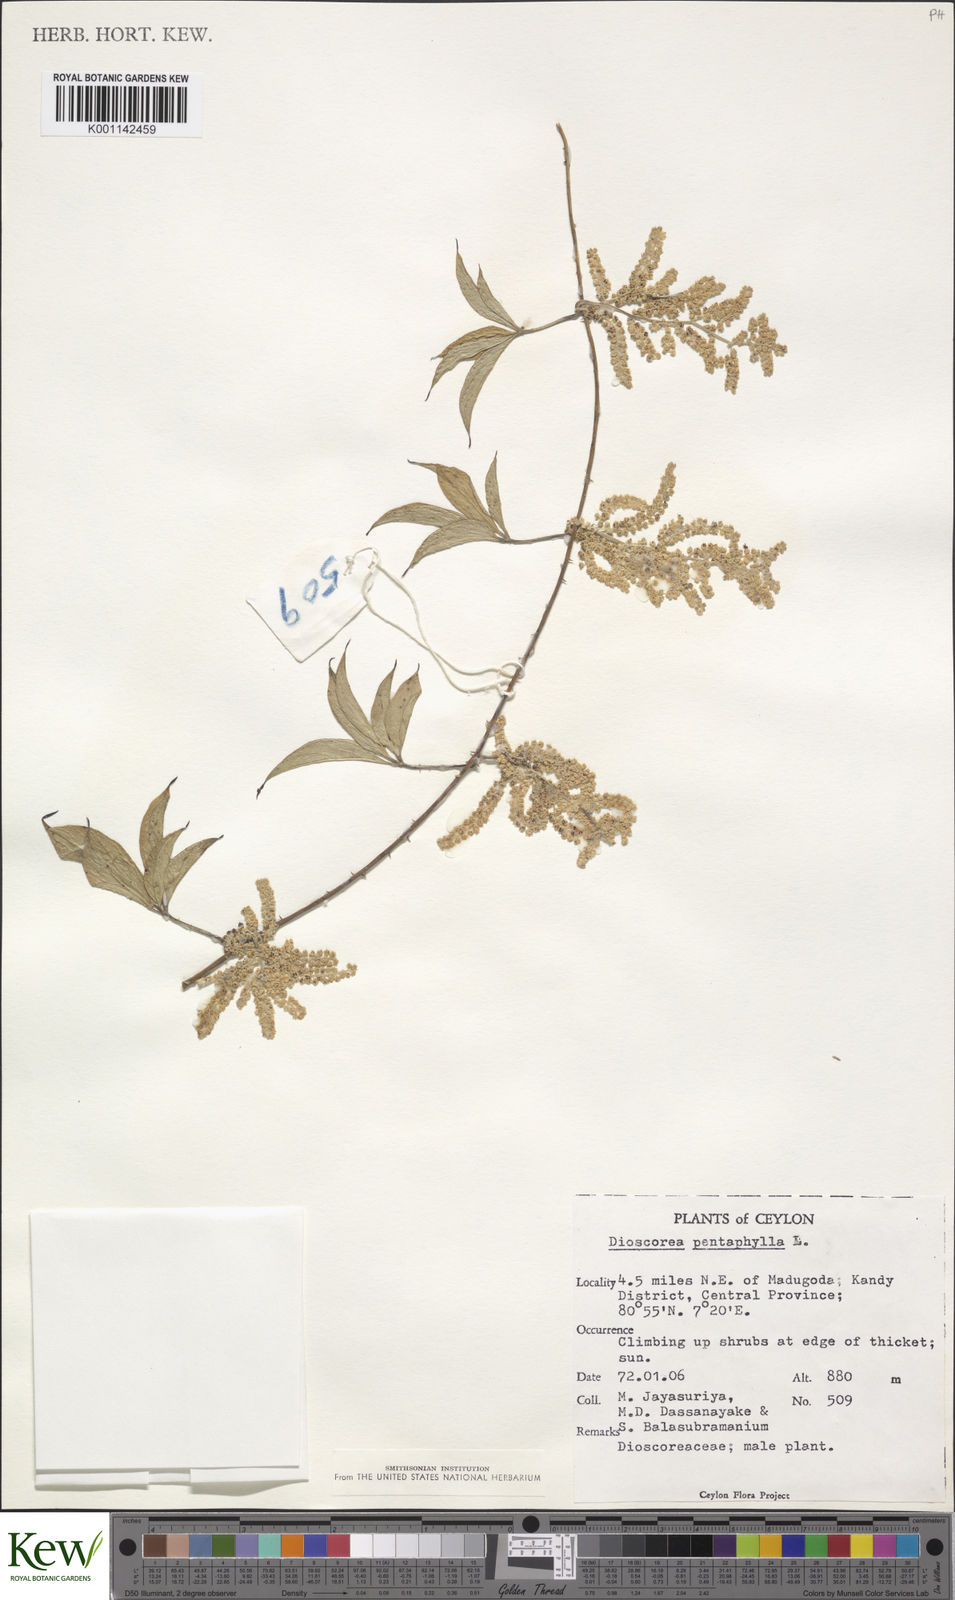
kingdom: Plantae
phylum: Tracheophyta
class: Liliopsida
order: Dioscoreales
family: Dioscoreaceae
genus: Dioscorea
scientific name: Dioscorea pentaphylla
